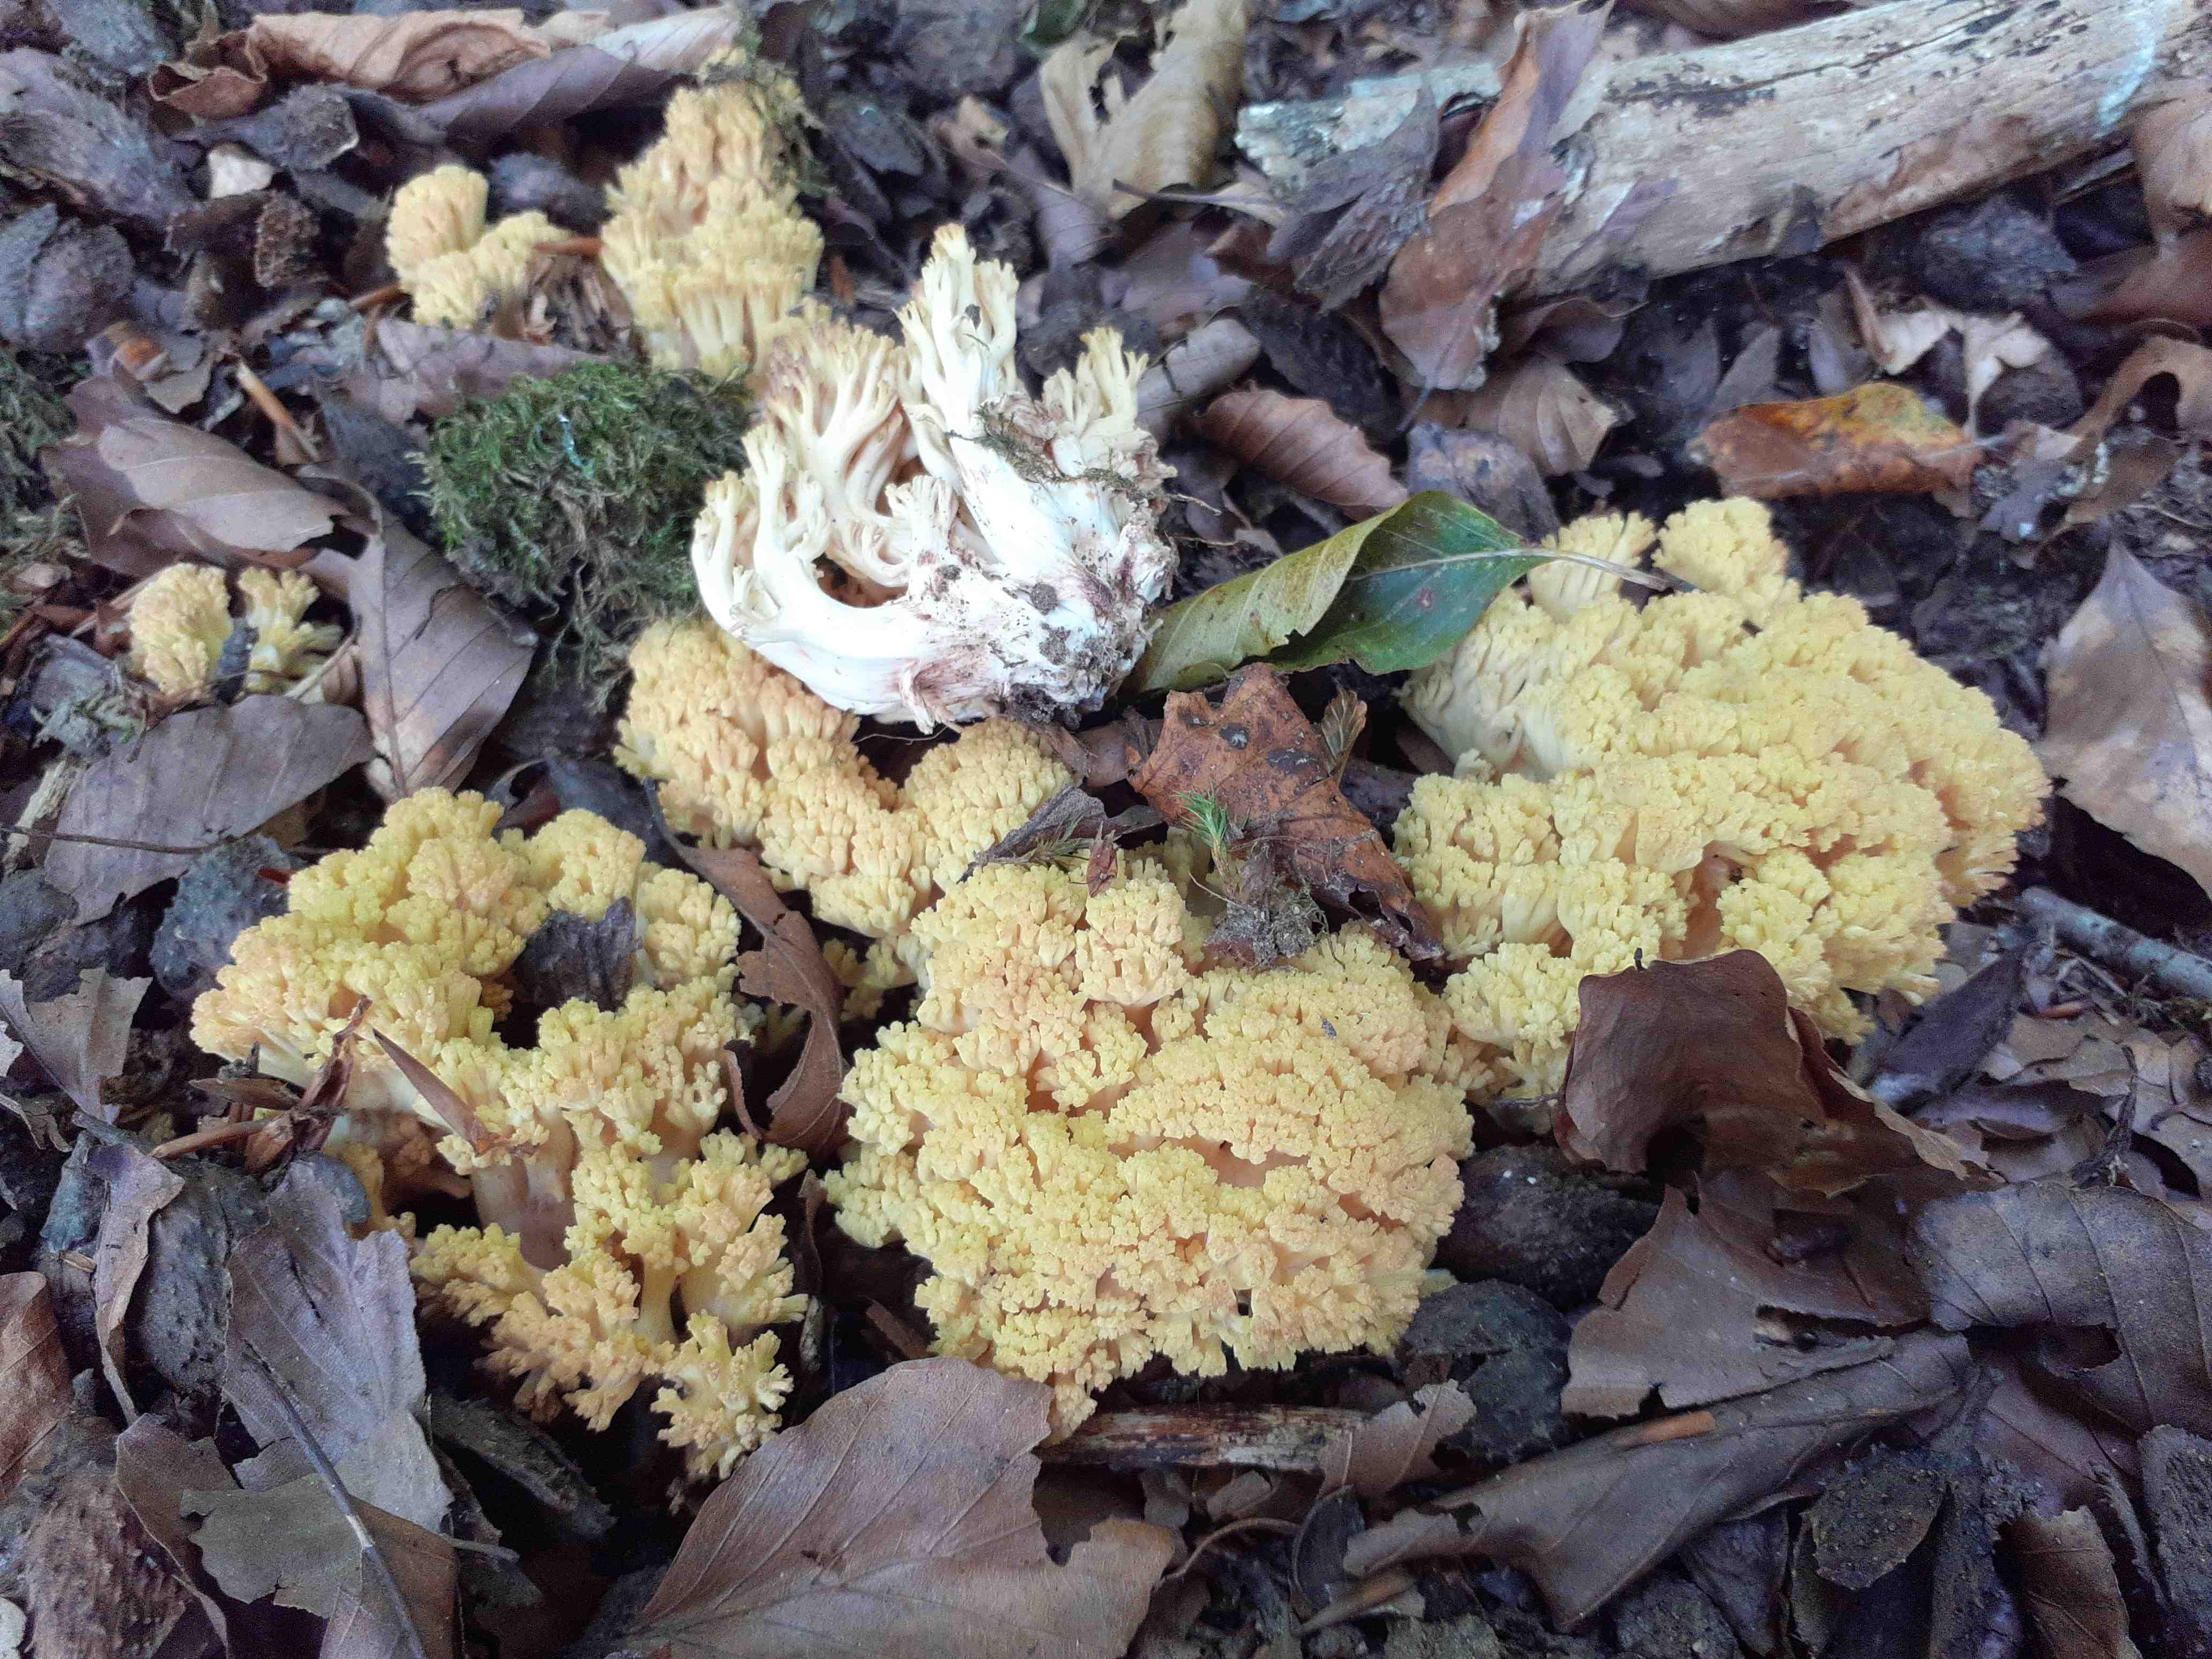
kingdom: Fungi
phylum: Basidiomycota
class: Agaricomycetes
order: Gomphales
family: Gomphaceae
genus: Ramaria
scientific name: Ramaria sanguinea
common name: blodplettet koralsvamp
